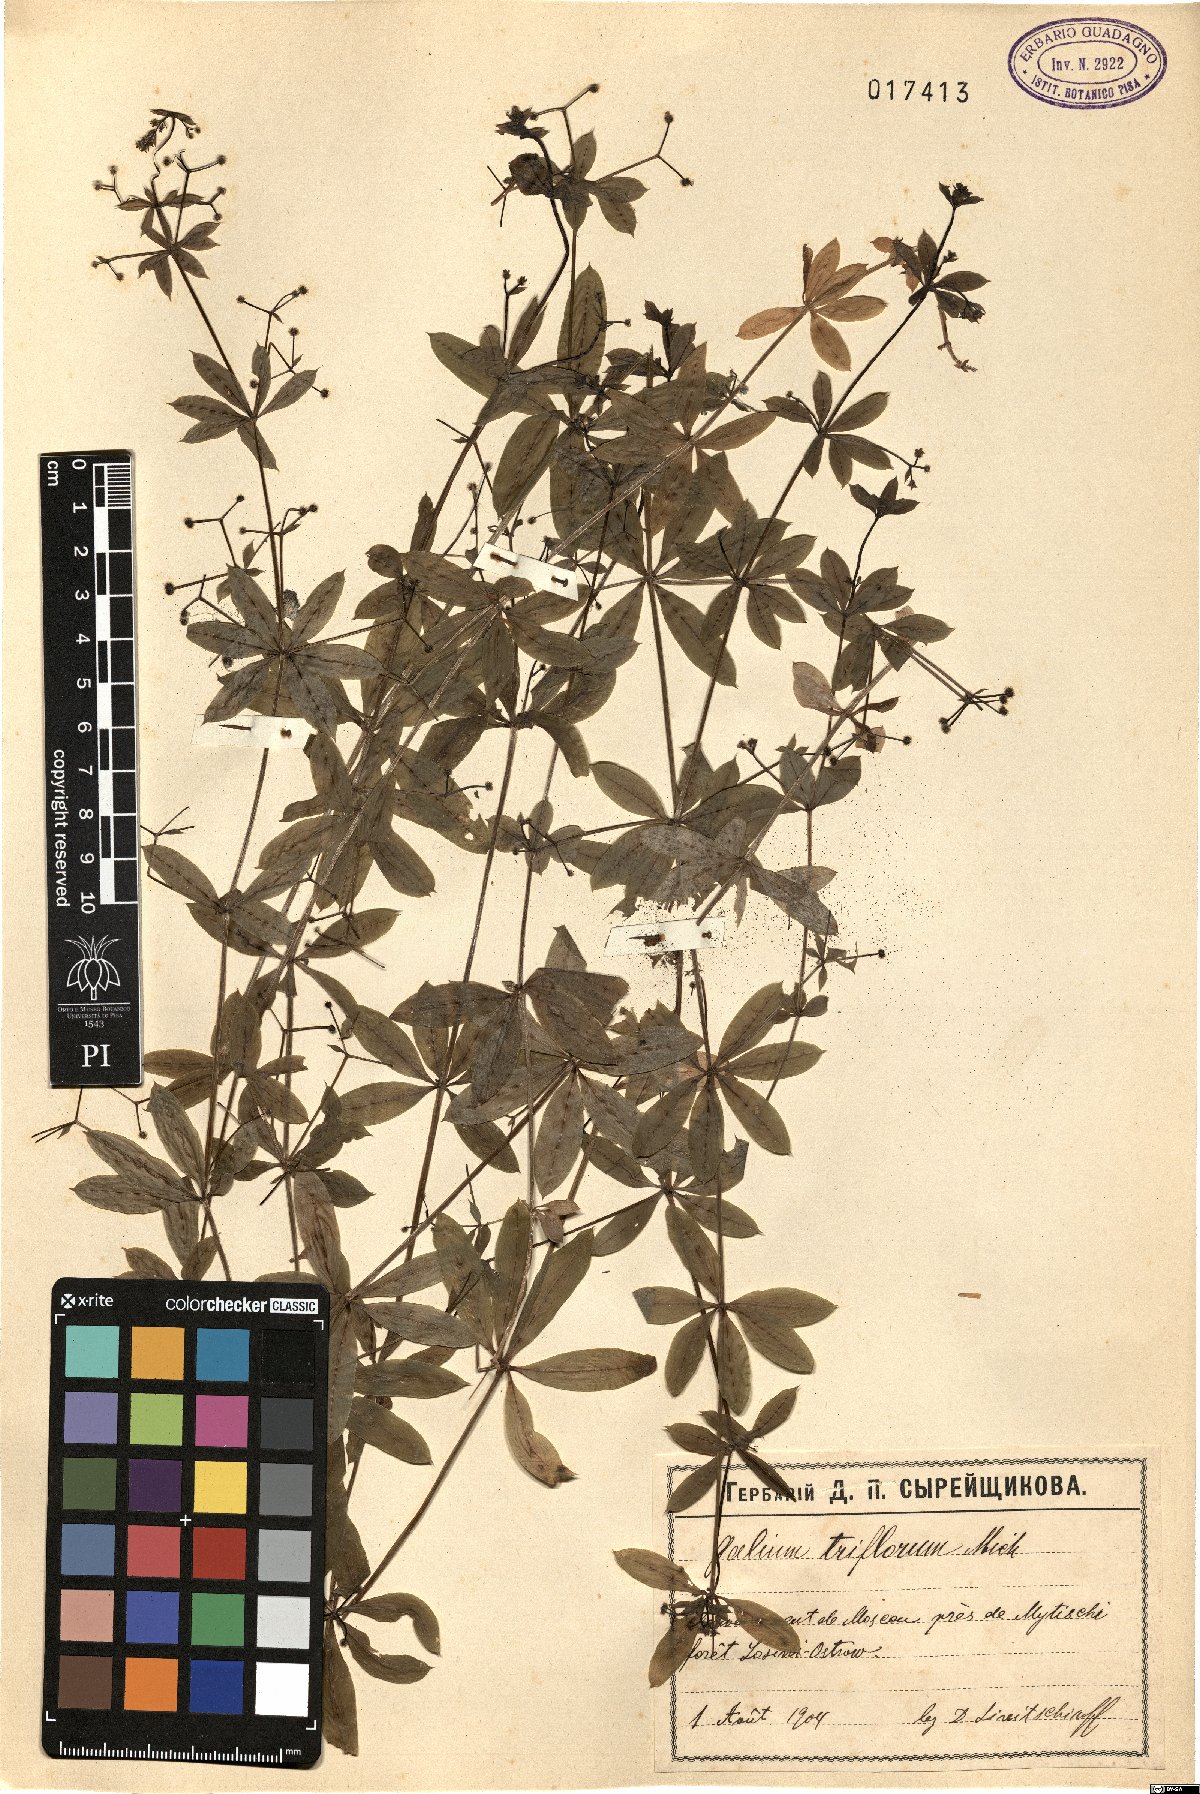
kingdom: Plantae
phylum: Tracheophyta
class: Magnoliopsida
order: Gentianales
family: Rubiaceae
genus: Galium
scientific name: Galium triflorum
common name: Fragrant bedstraw
